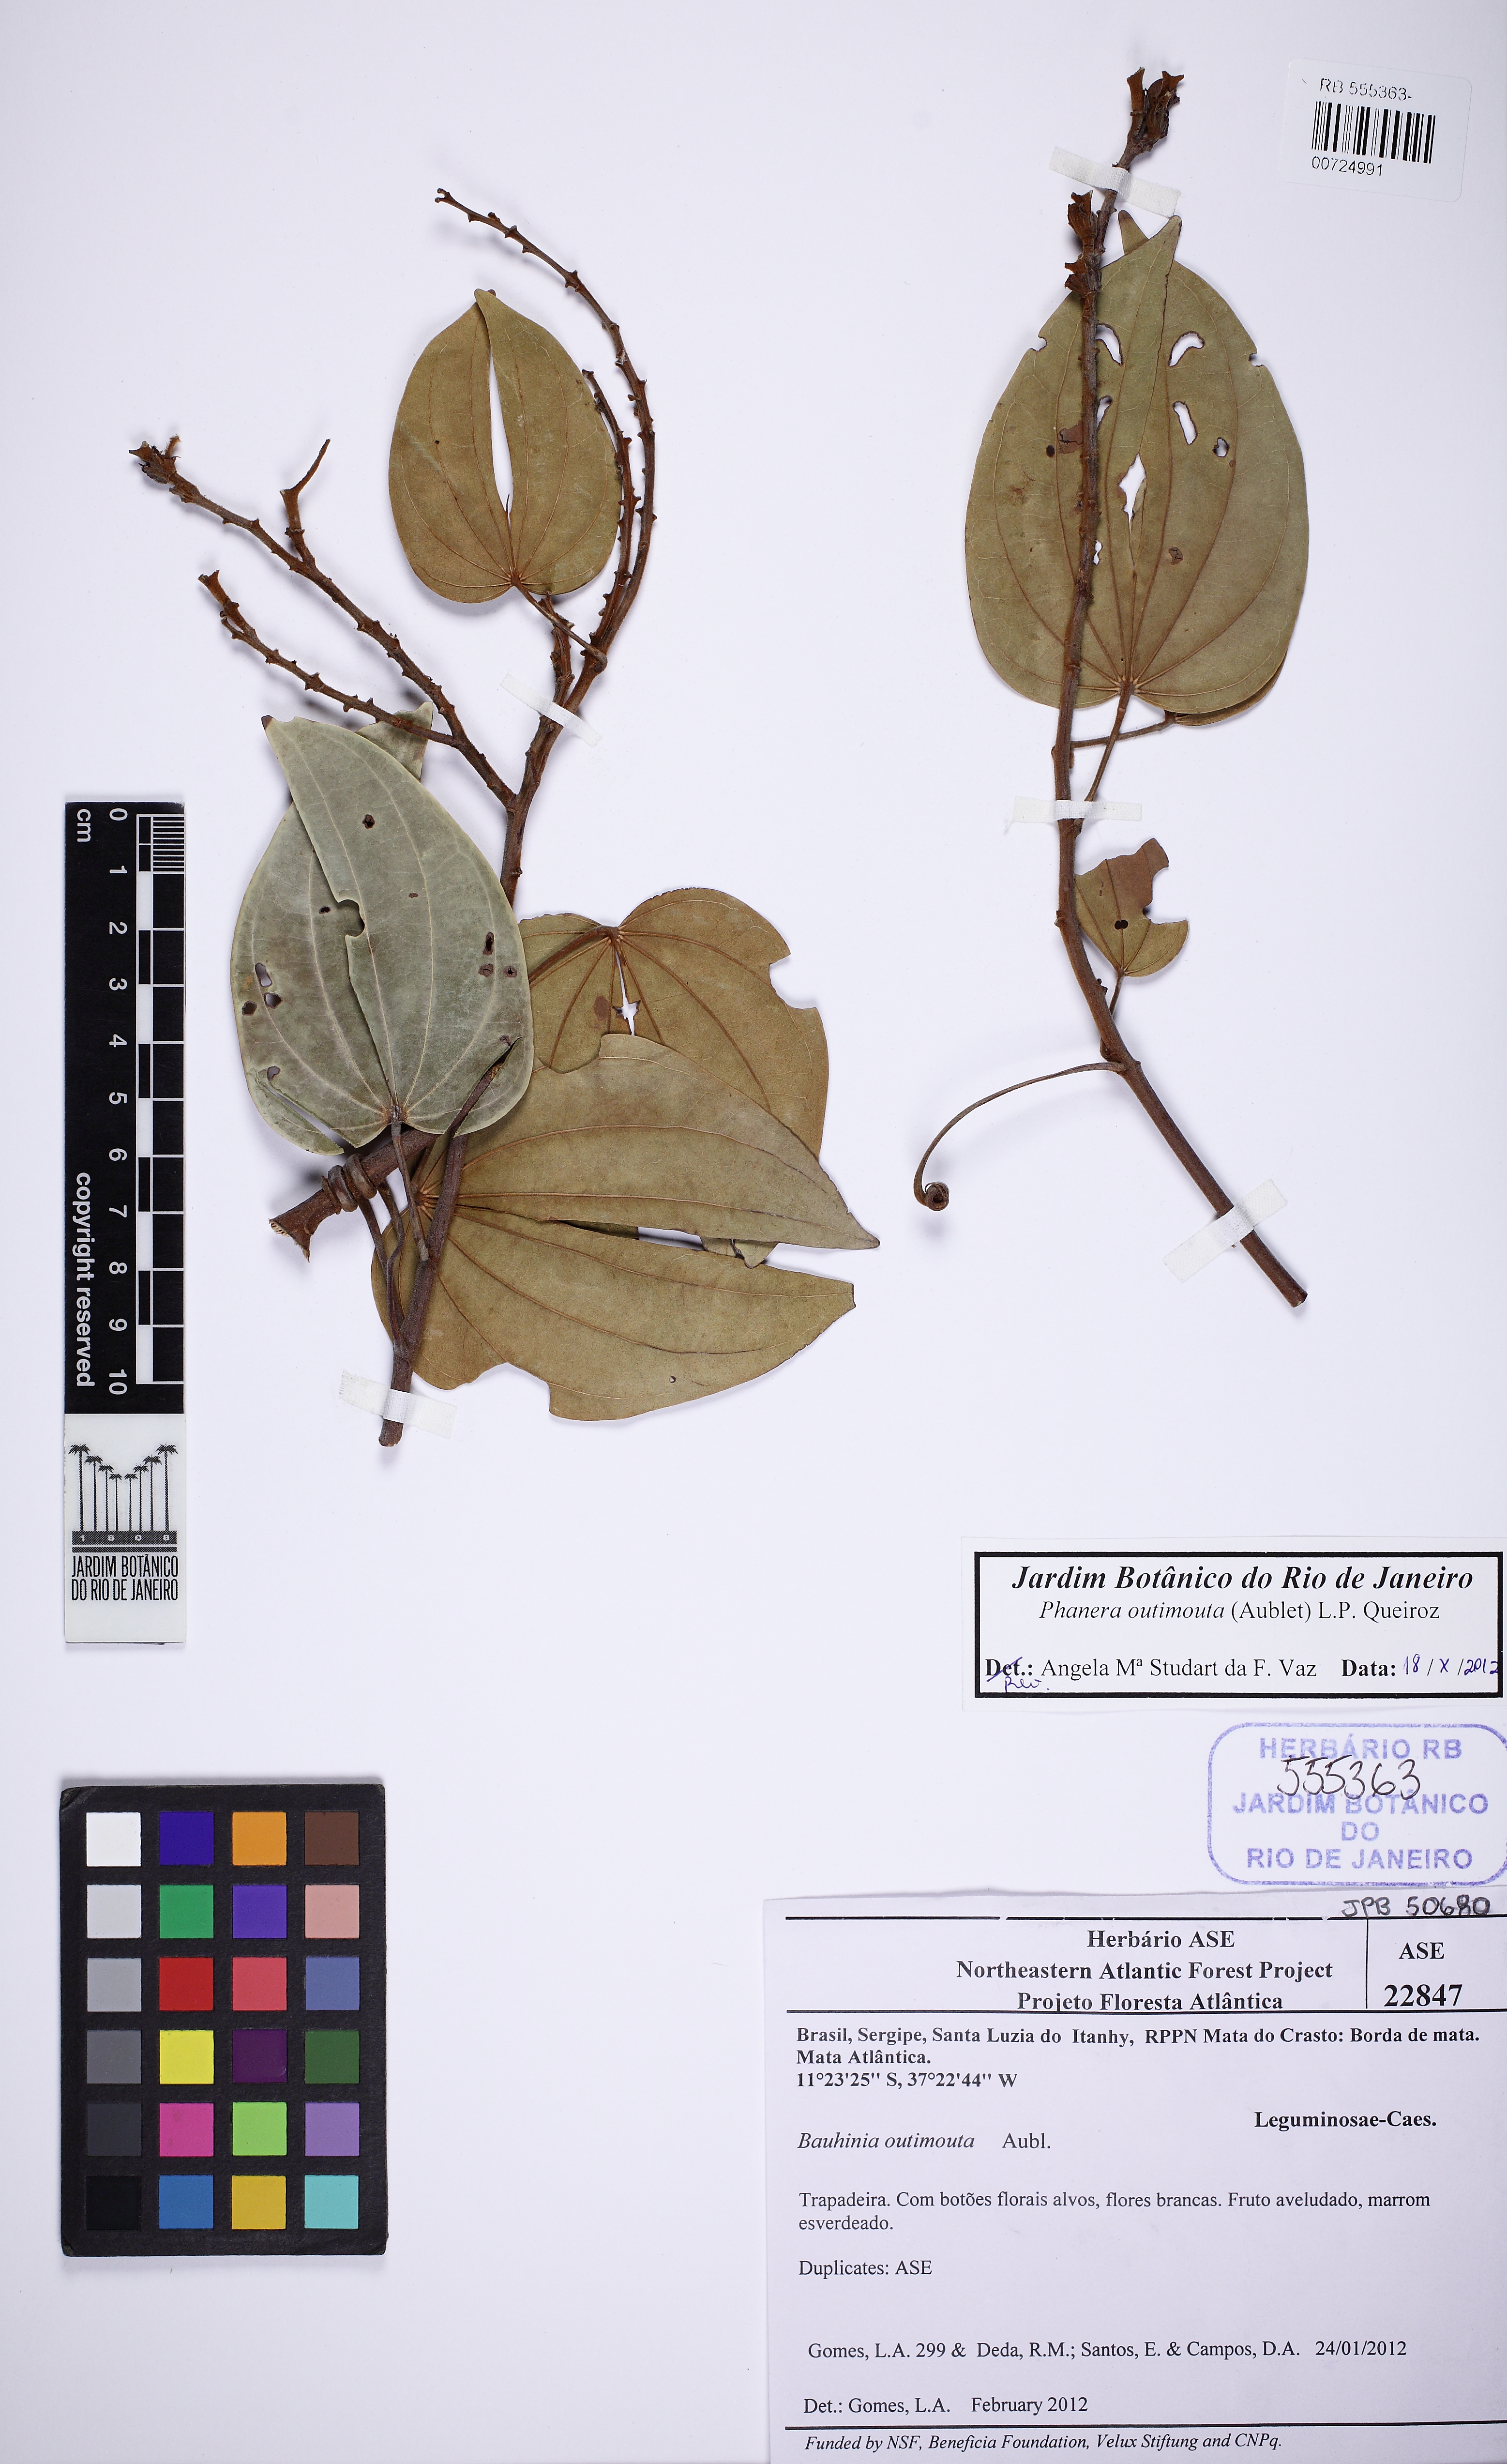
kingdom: Plantae
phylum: Tracheophyta
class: Magnoliopsida
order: Fabales
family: Fabaceae
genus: Schnella
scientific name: Schnella outimouta
